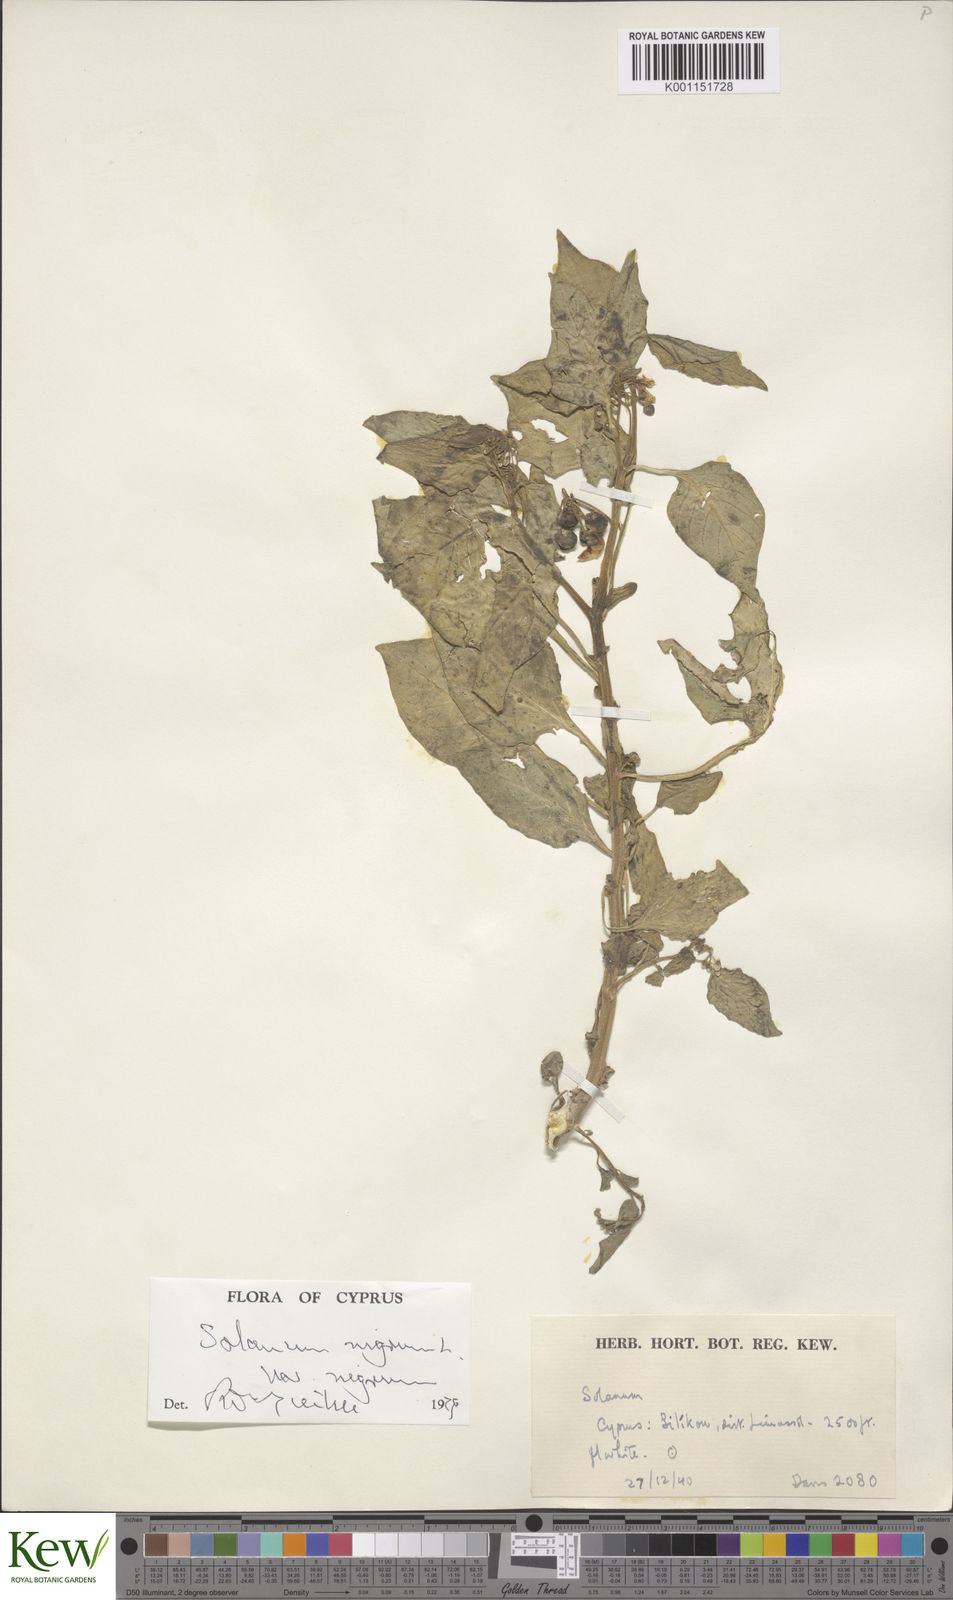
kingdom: Plantae
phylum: Tracheophyta
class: Magnoliopsida
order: Solanales
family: Solanaceae
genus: Solanum
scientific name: Solanum nigrum
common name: Black nightshade
